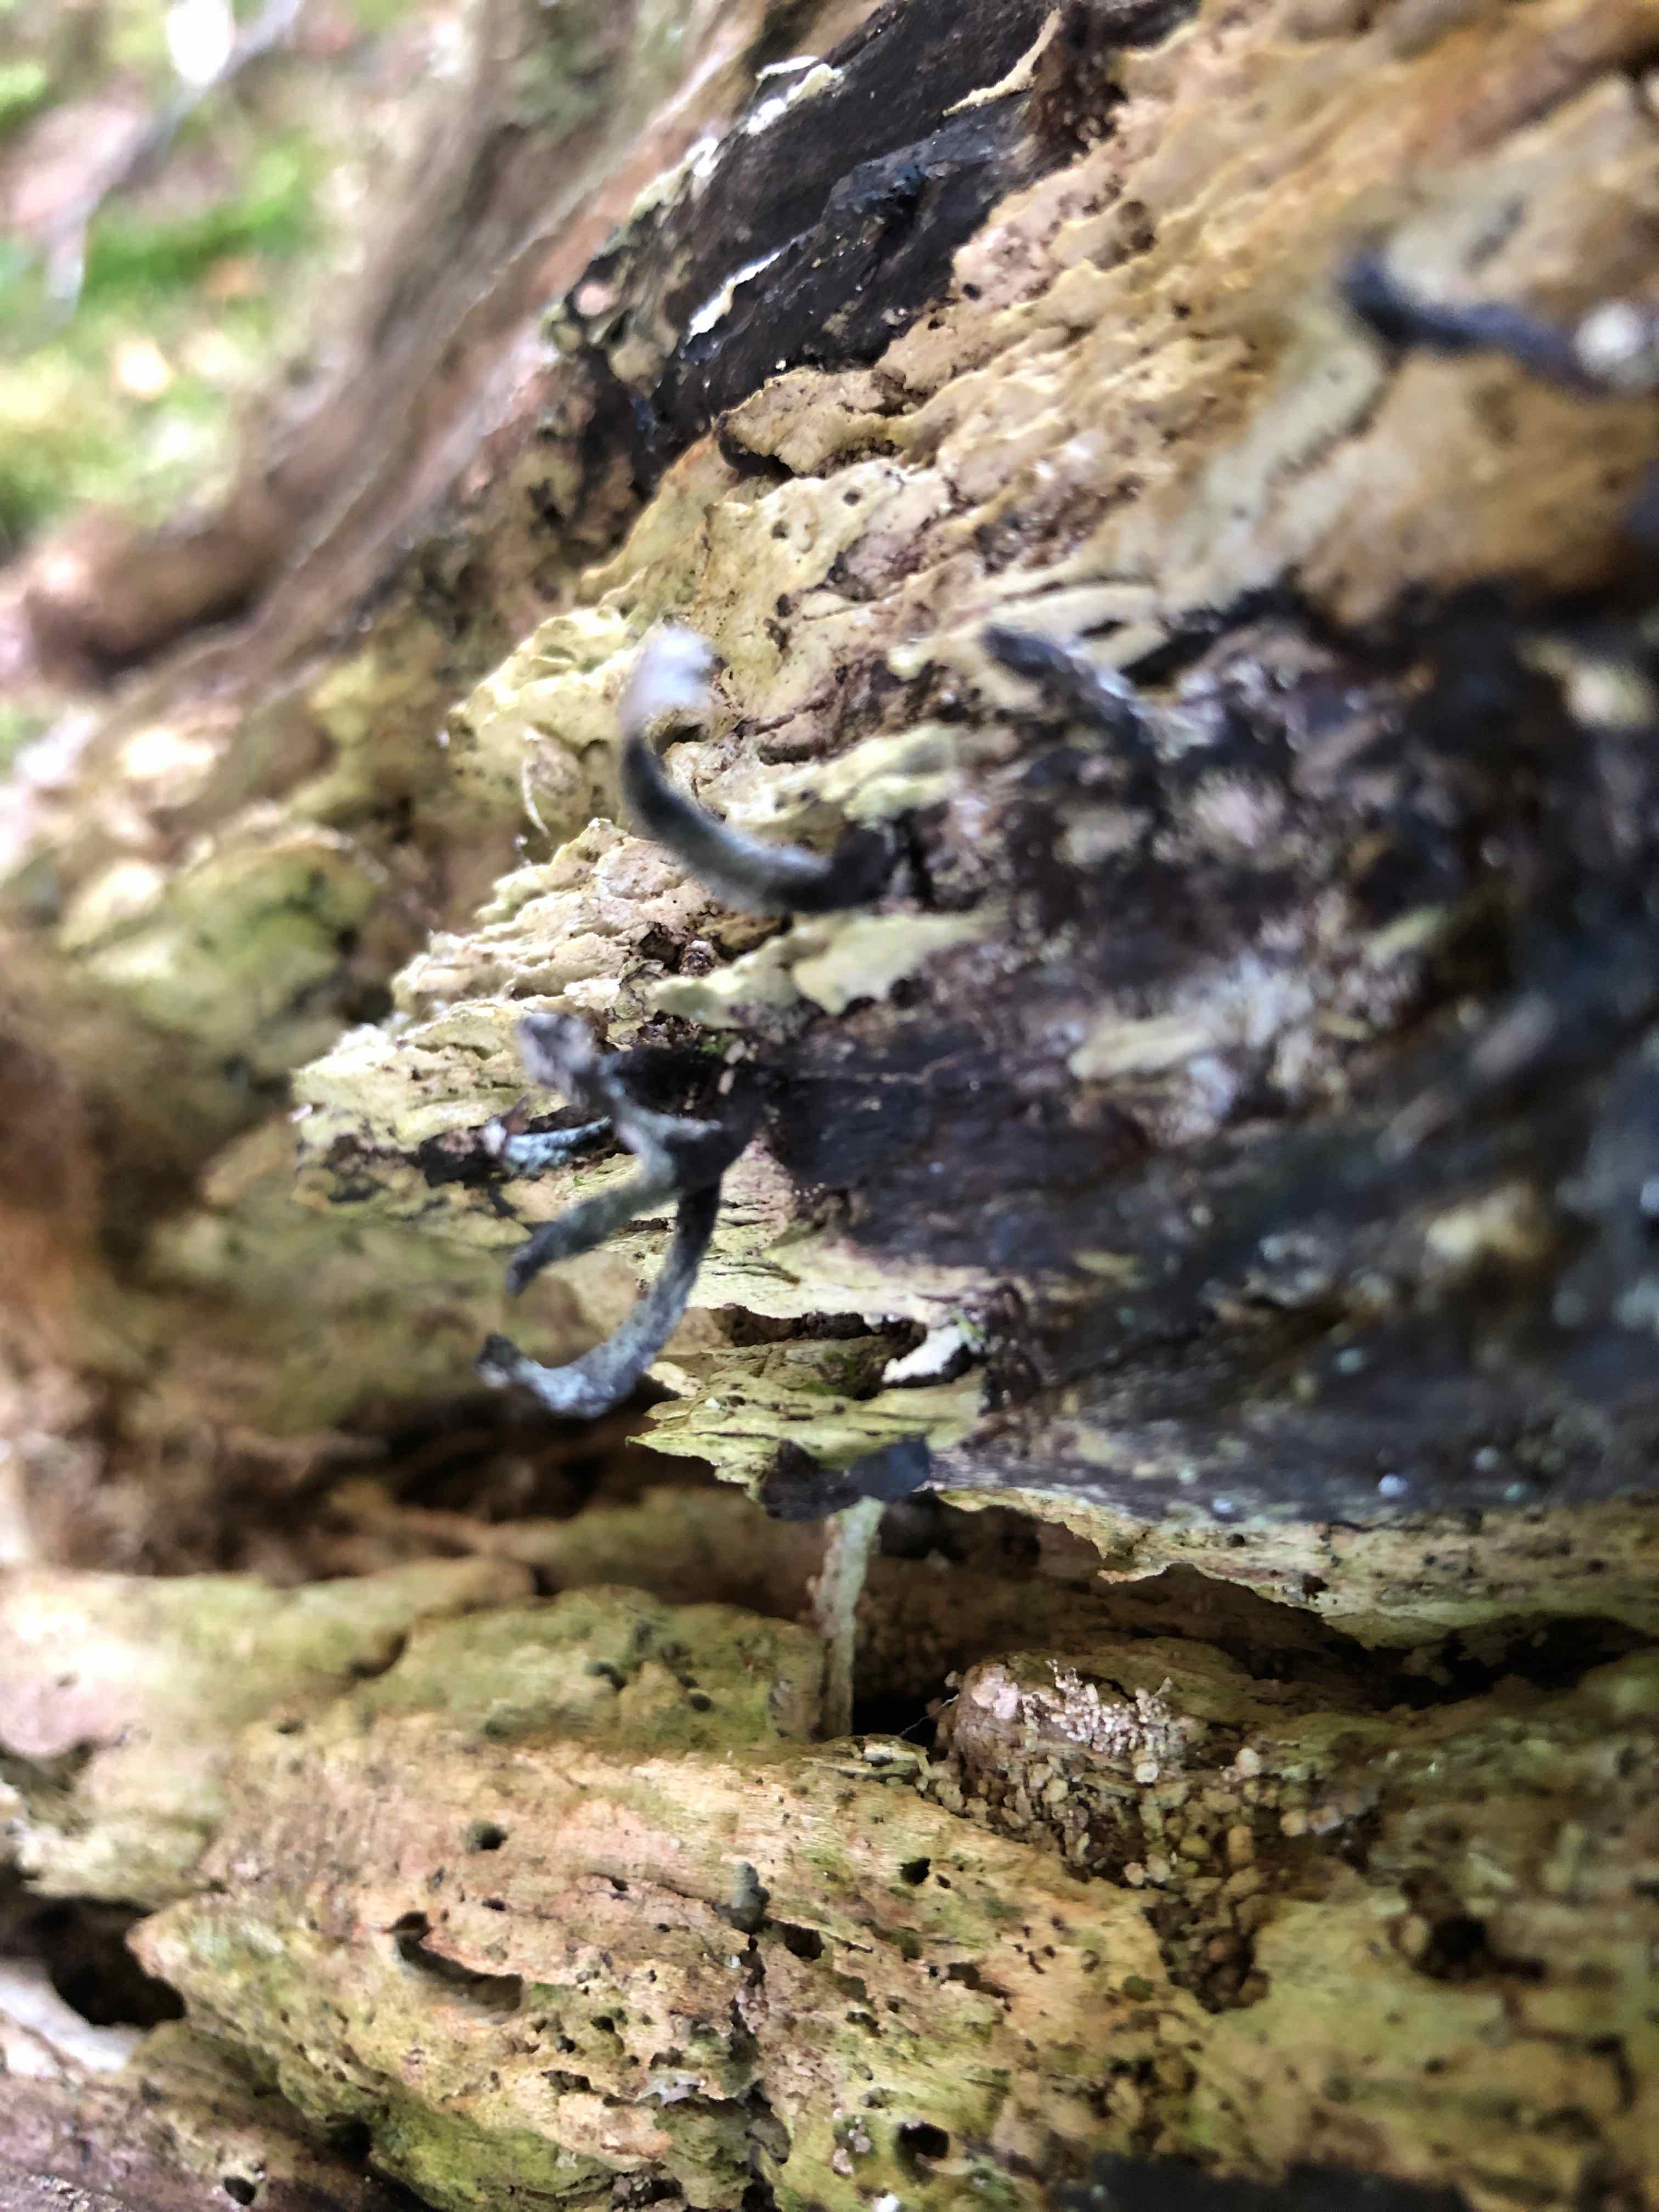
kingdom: Fungi
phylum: Ascomycota
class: Sordariomycetes
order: Xylariales
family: Xylariaceae
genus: Xylaria
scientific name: Xylaria hypoxylon
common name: grenet stødsvamp
